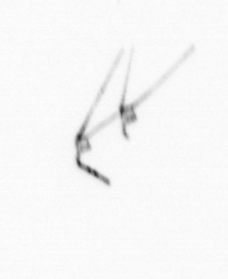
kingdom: Chromista
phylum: Myzozoa
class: Dinophyceae
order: Gonyaulacales
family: Ceratiaceae
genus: Ceratium
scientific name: Ceratium
